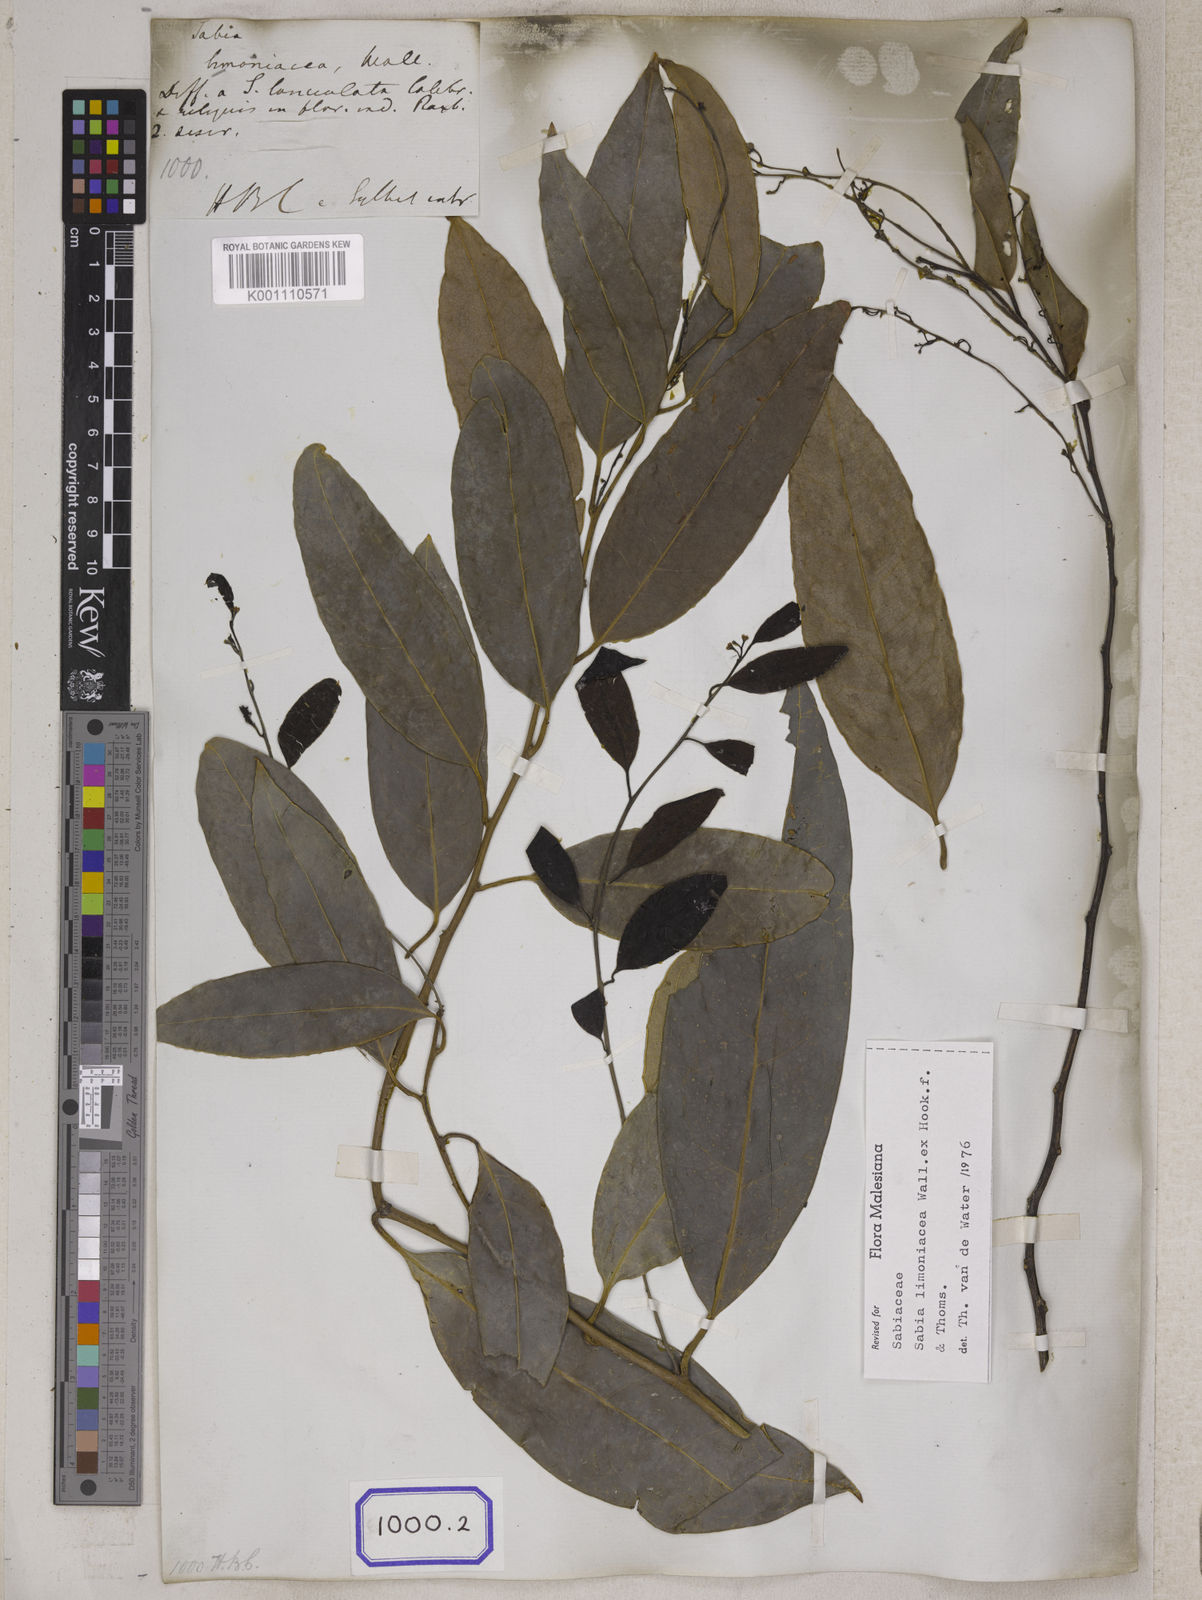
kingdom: Plantae
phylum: Tracheophyta
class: Magnoliopsida
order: Proteales
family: Sabiaceae
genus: Sabia
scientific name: Sabia
